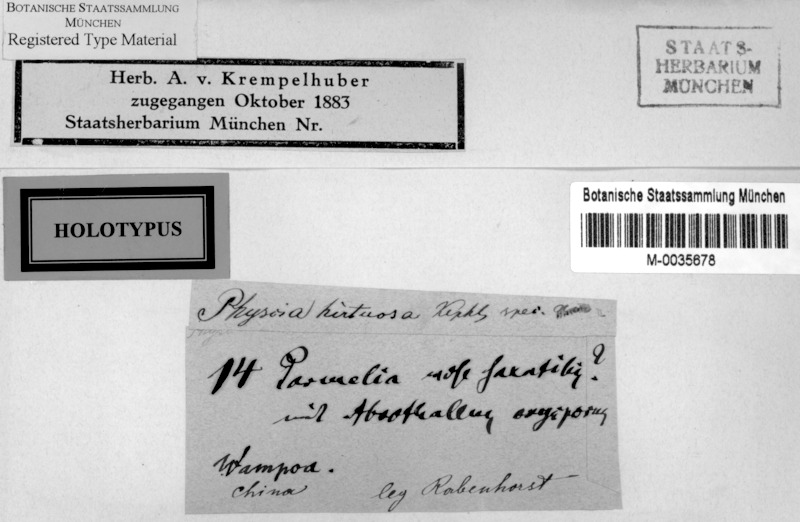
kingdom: Fungi
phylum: Ascomycota
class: Lecanoromycetes
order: Caliciales
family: Physciaceae
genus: Phaeophyscia
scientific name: Phaeophyscia hirtuosa
